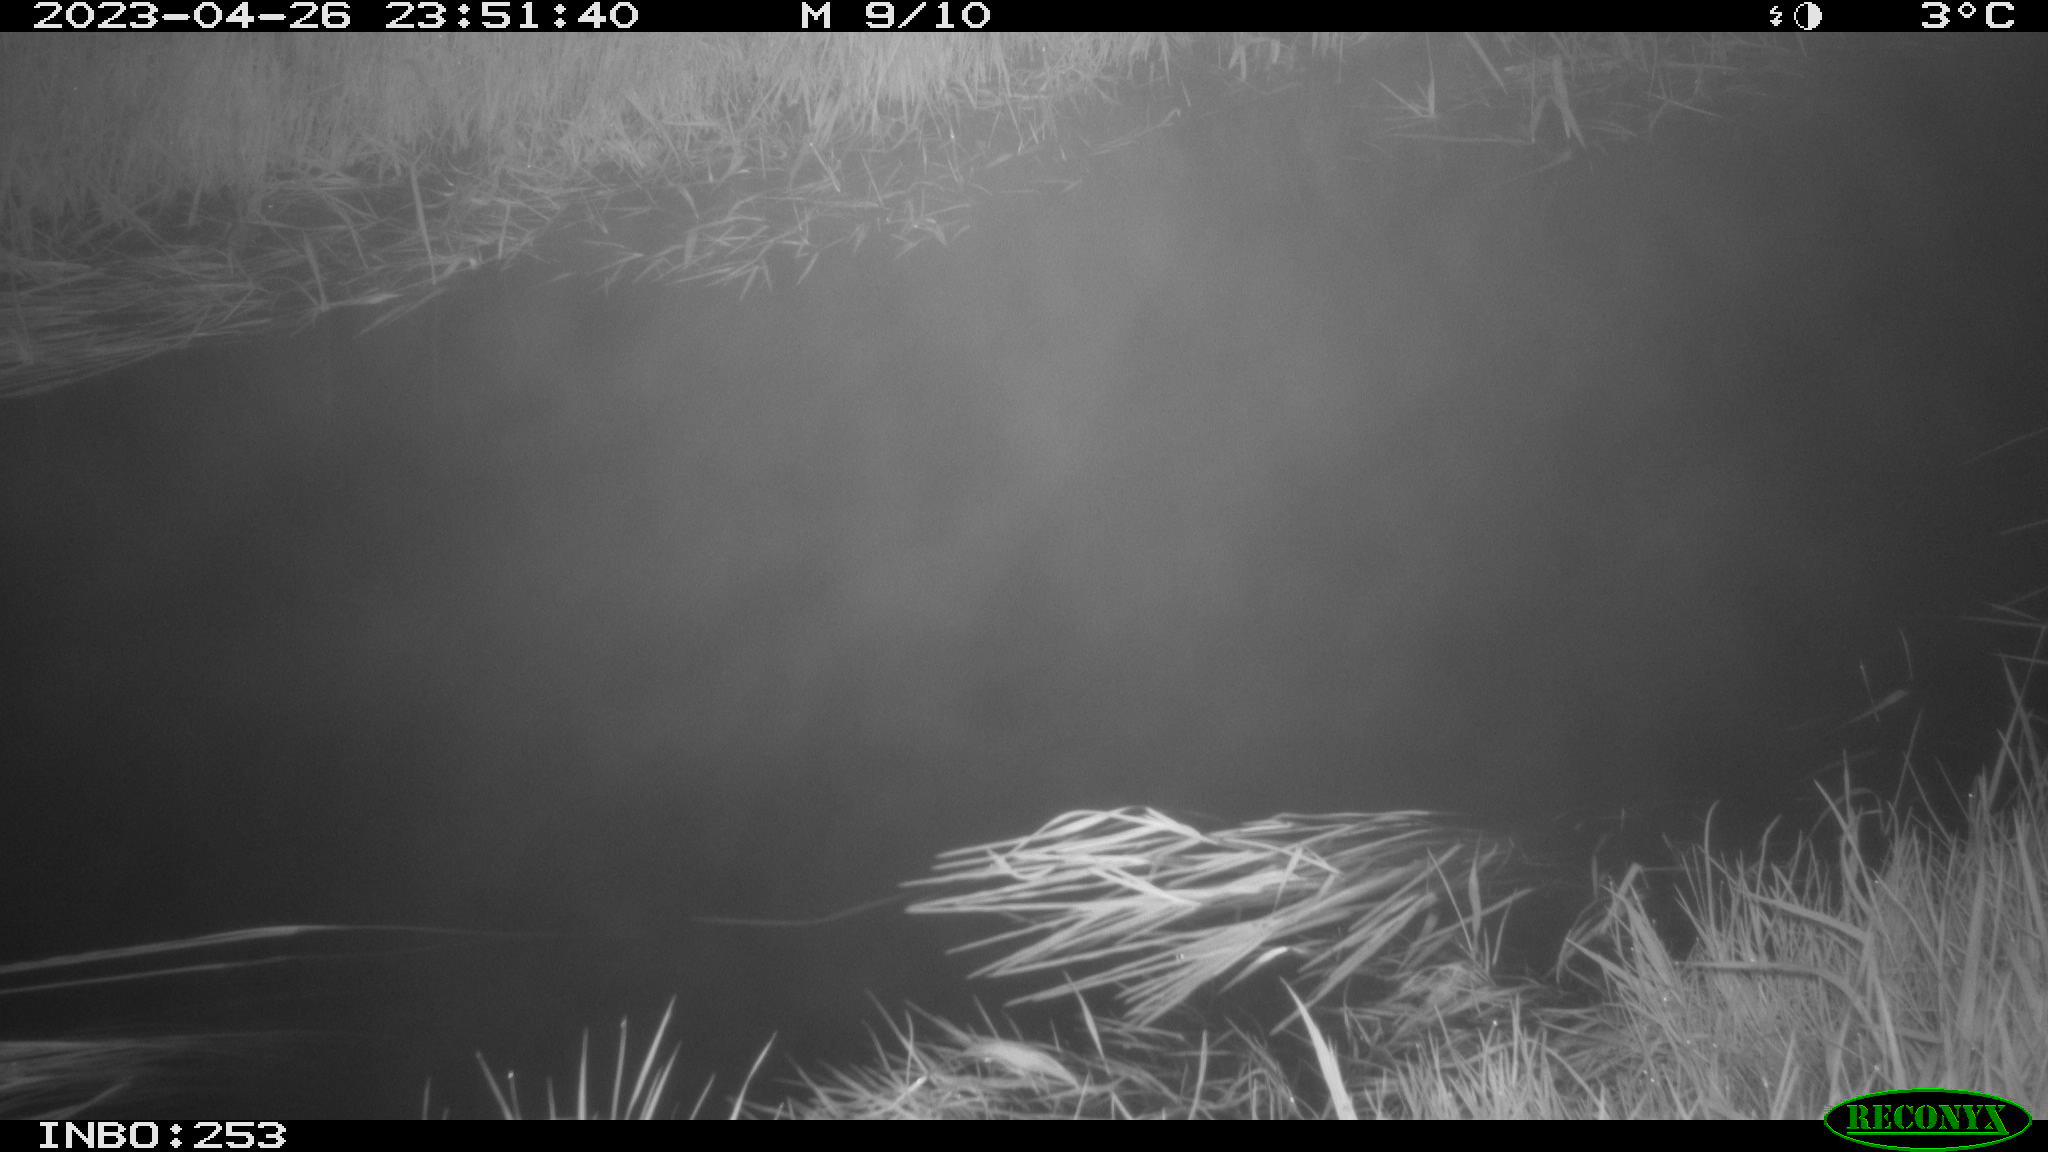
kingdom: Animalia
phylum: Chordata
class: Aves
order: Anseriformes
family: Anatidae
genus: Anas
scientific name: Anas
